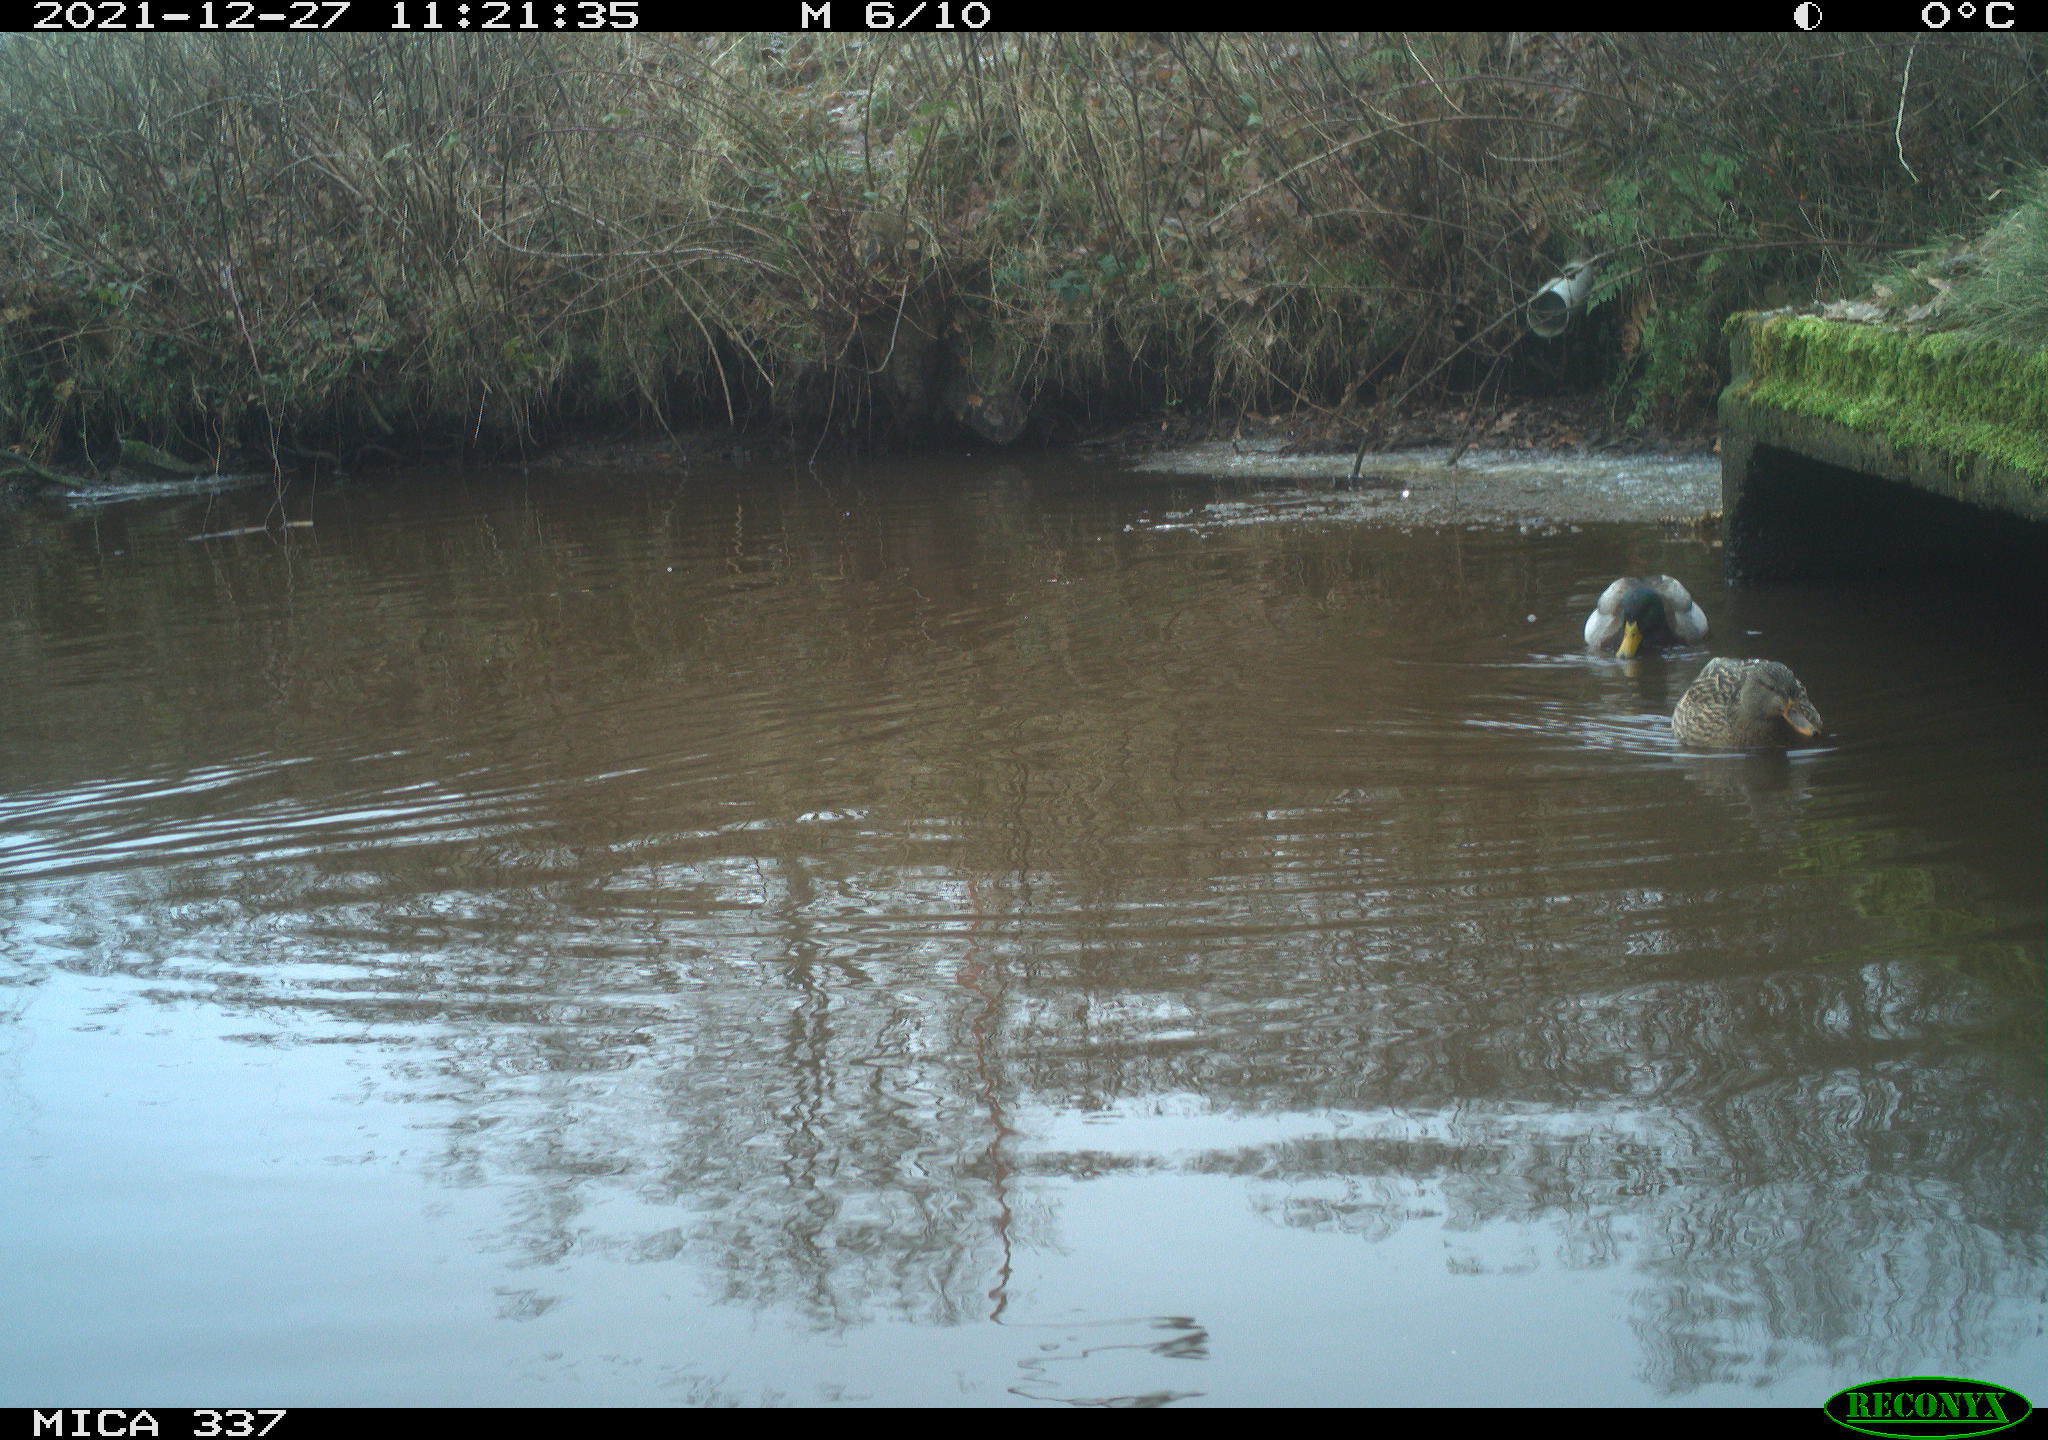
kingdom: Animalia
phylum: Chordata
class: Aves
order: Anseriformes
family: Anatidae
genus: Anas
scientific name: Anas platyrhynchos
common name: Mallard
